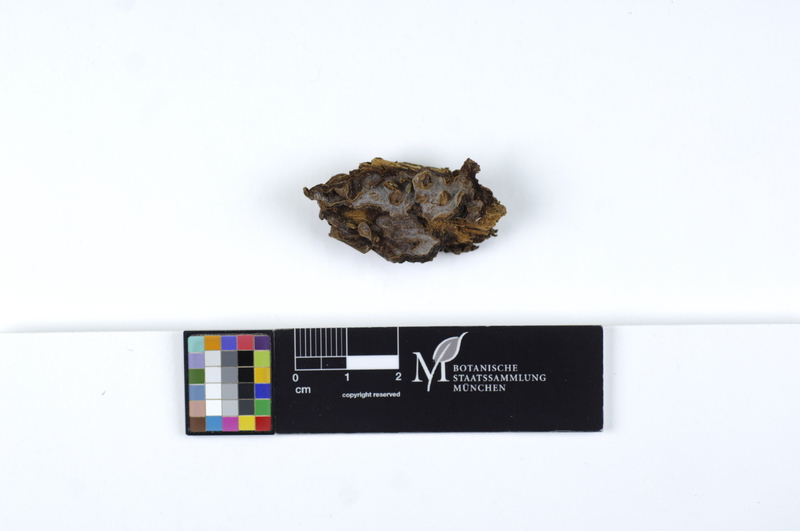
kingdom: Fungi
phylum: Basidiomycota
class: Agaricomycetes
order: Gloeophyllales
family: Gloeophyllaceae
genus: Veluticeps
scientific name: Veluticeps abietina
